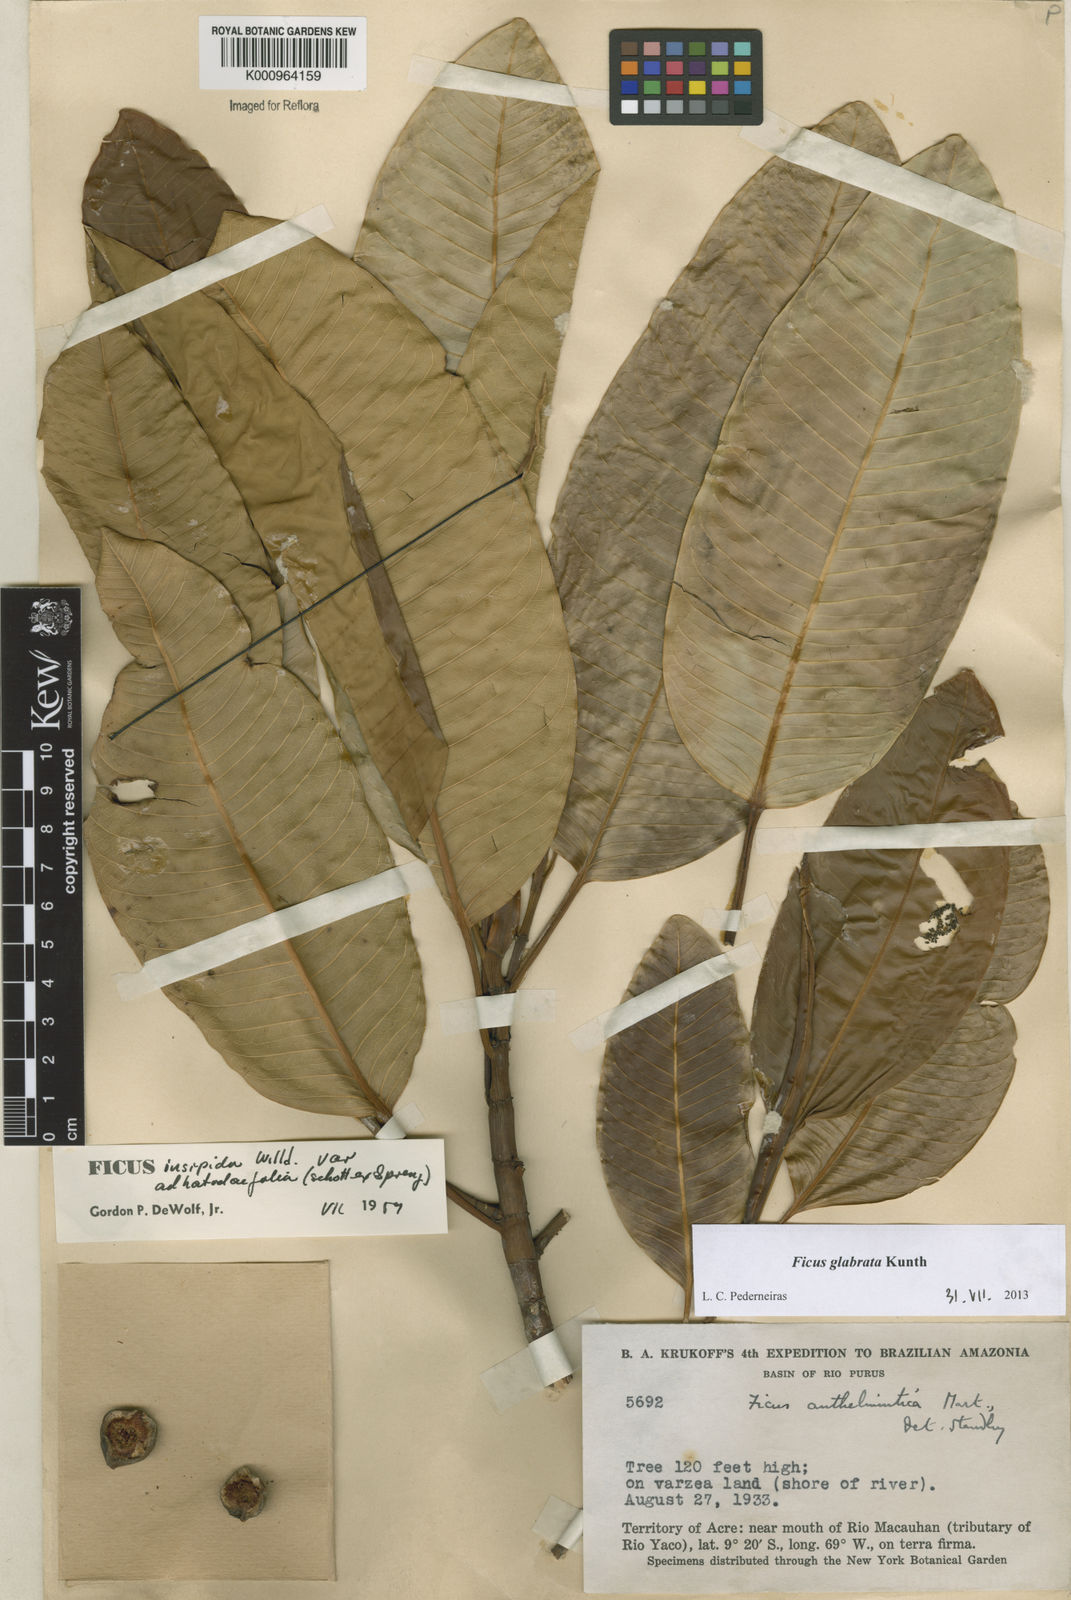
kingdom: Plantae
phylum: Tracheophyta
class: Magnoliopsida
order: Rosales
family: Moraceae
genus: Ficus
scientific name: Ficus insipida
